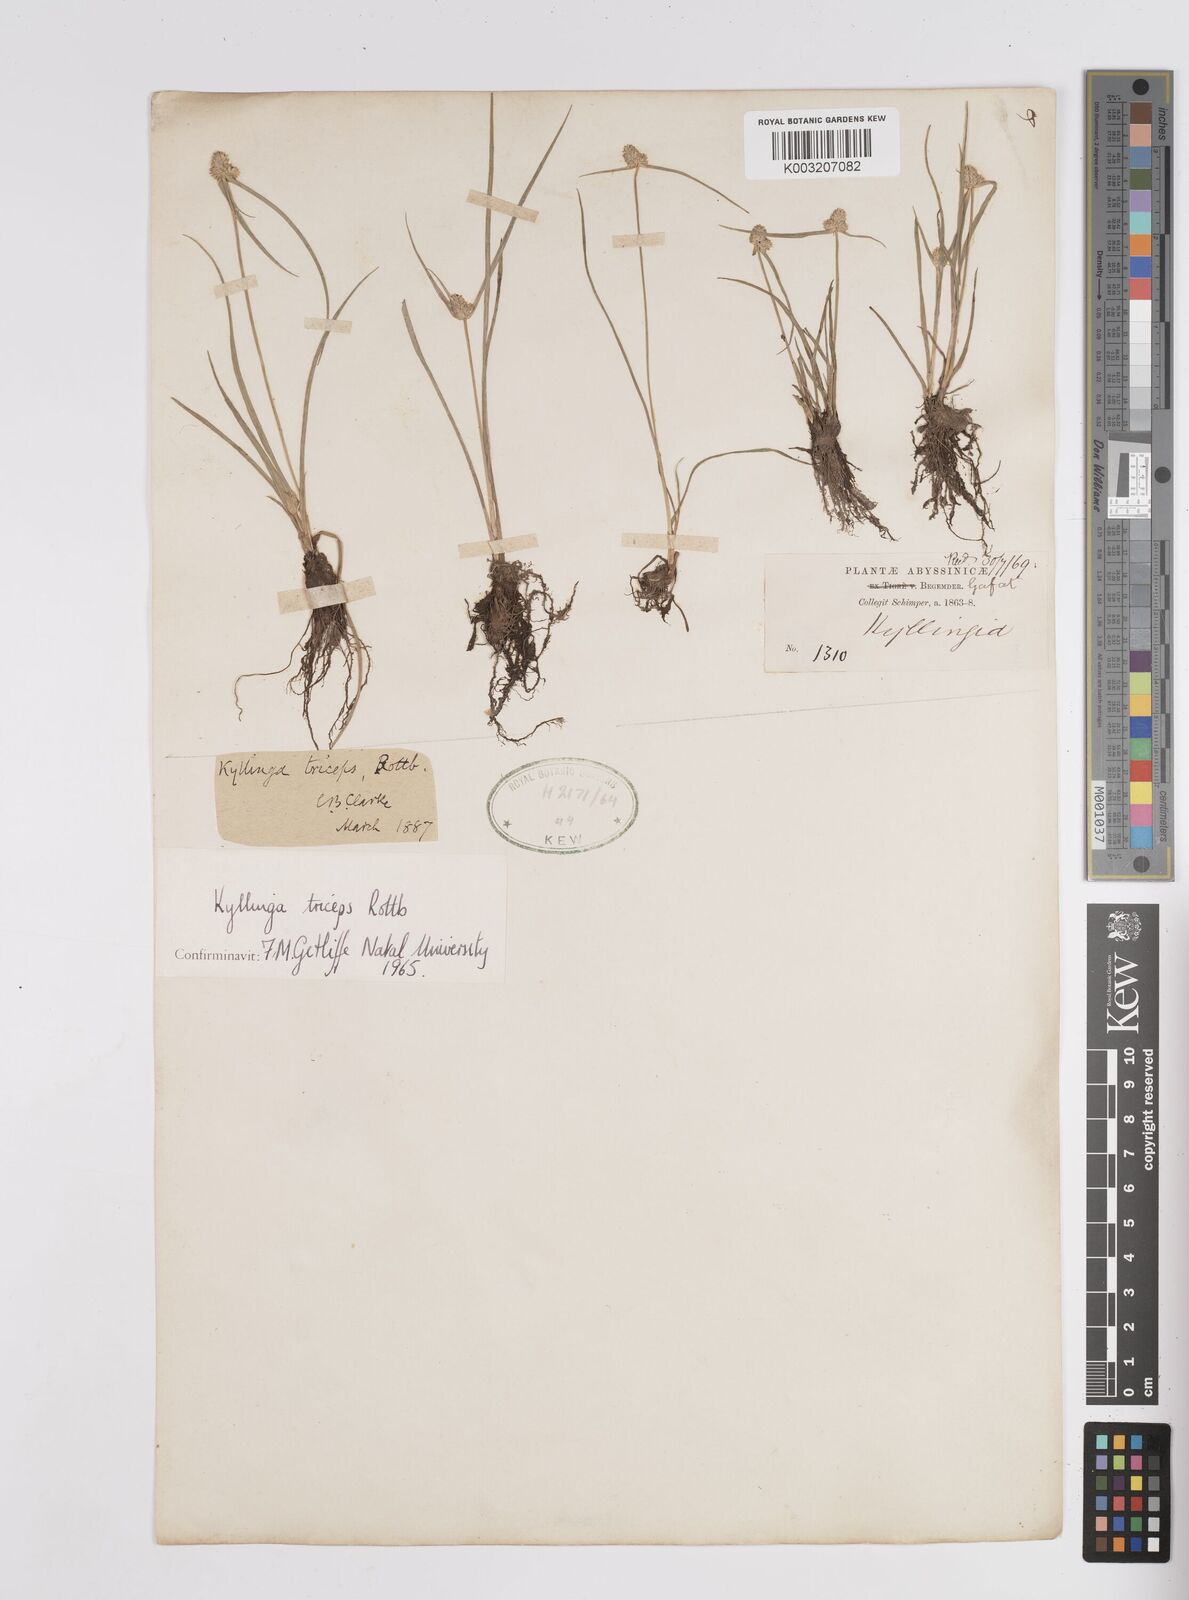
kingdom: Plantae
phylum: Tracheophyta
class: Liliopsida
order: Poales
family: Cyperaceae
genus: Cyperus
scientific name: Cyperus
